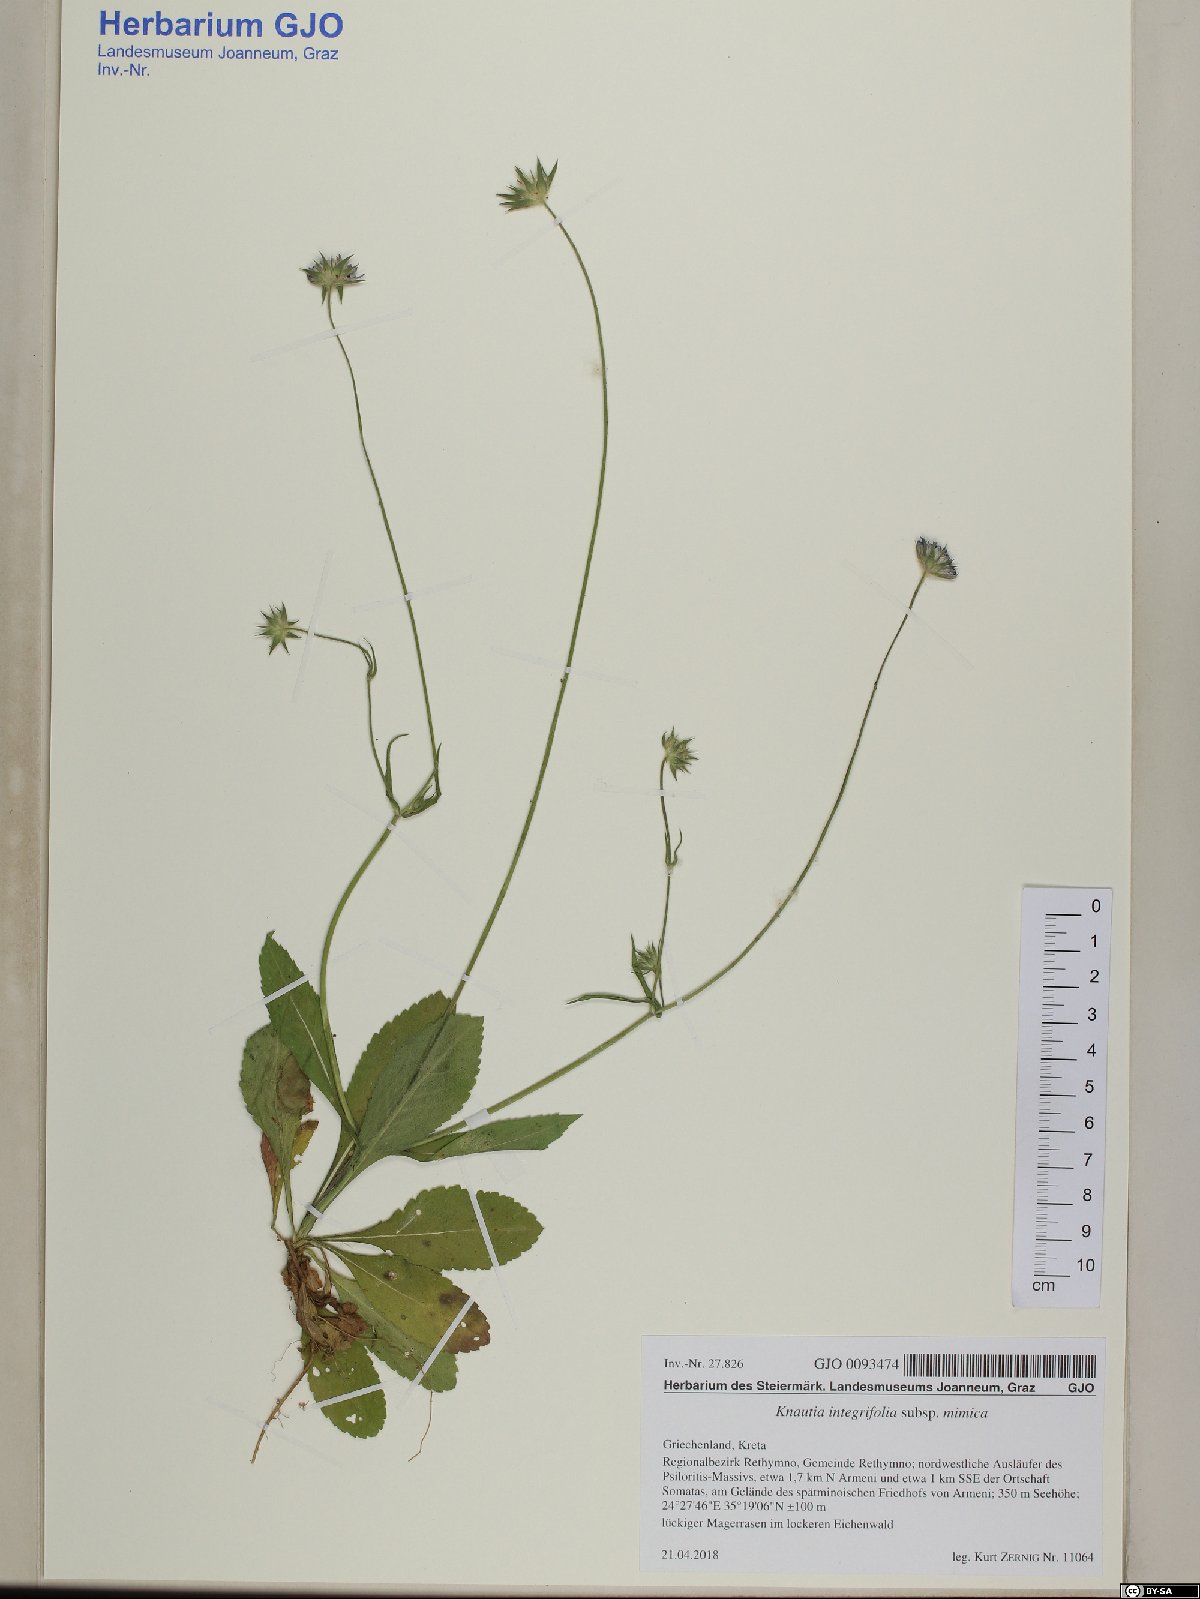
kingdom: Plantae
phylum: Tracheophyta
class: Magnoliopsida
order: Dipsacales
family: Caprifoliaceae
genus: Knautia
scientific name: Knautia integrifolia
